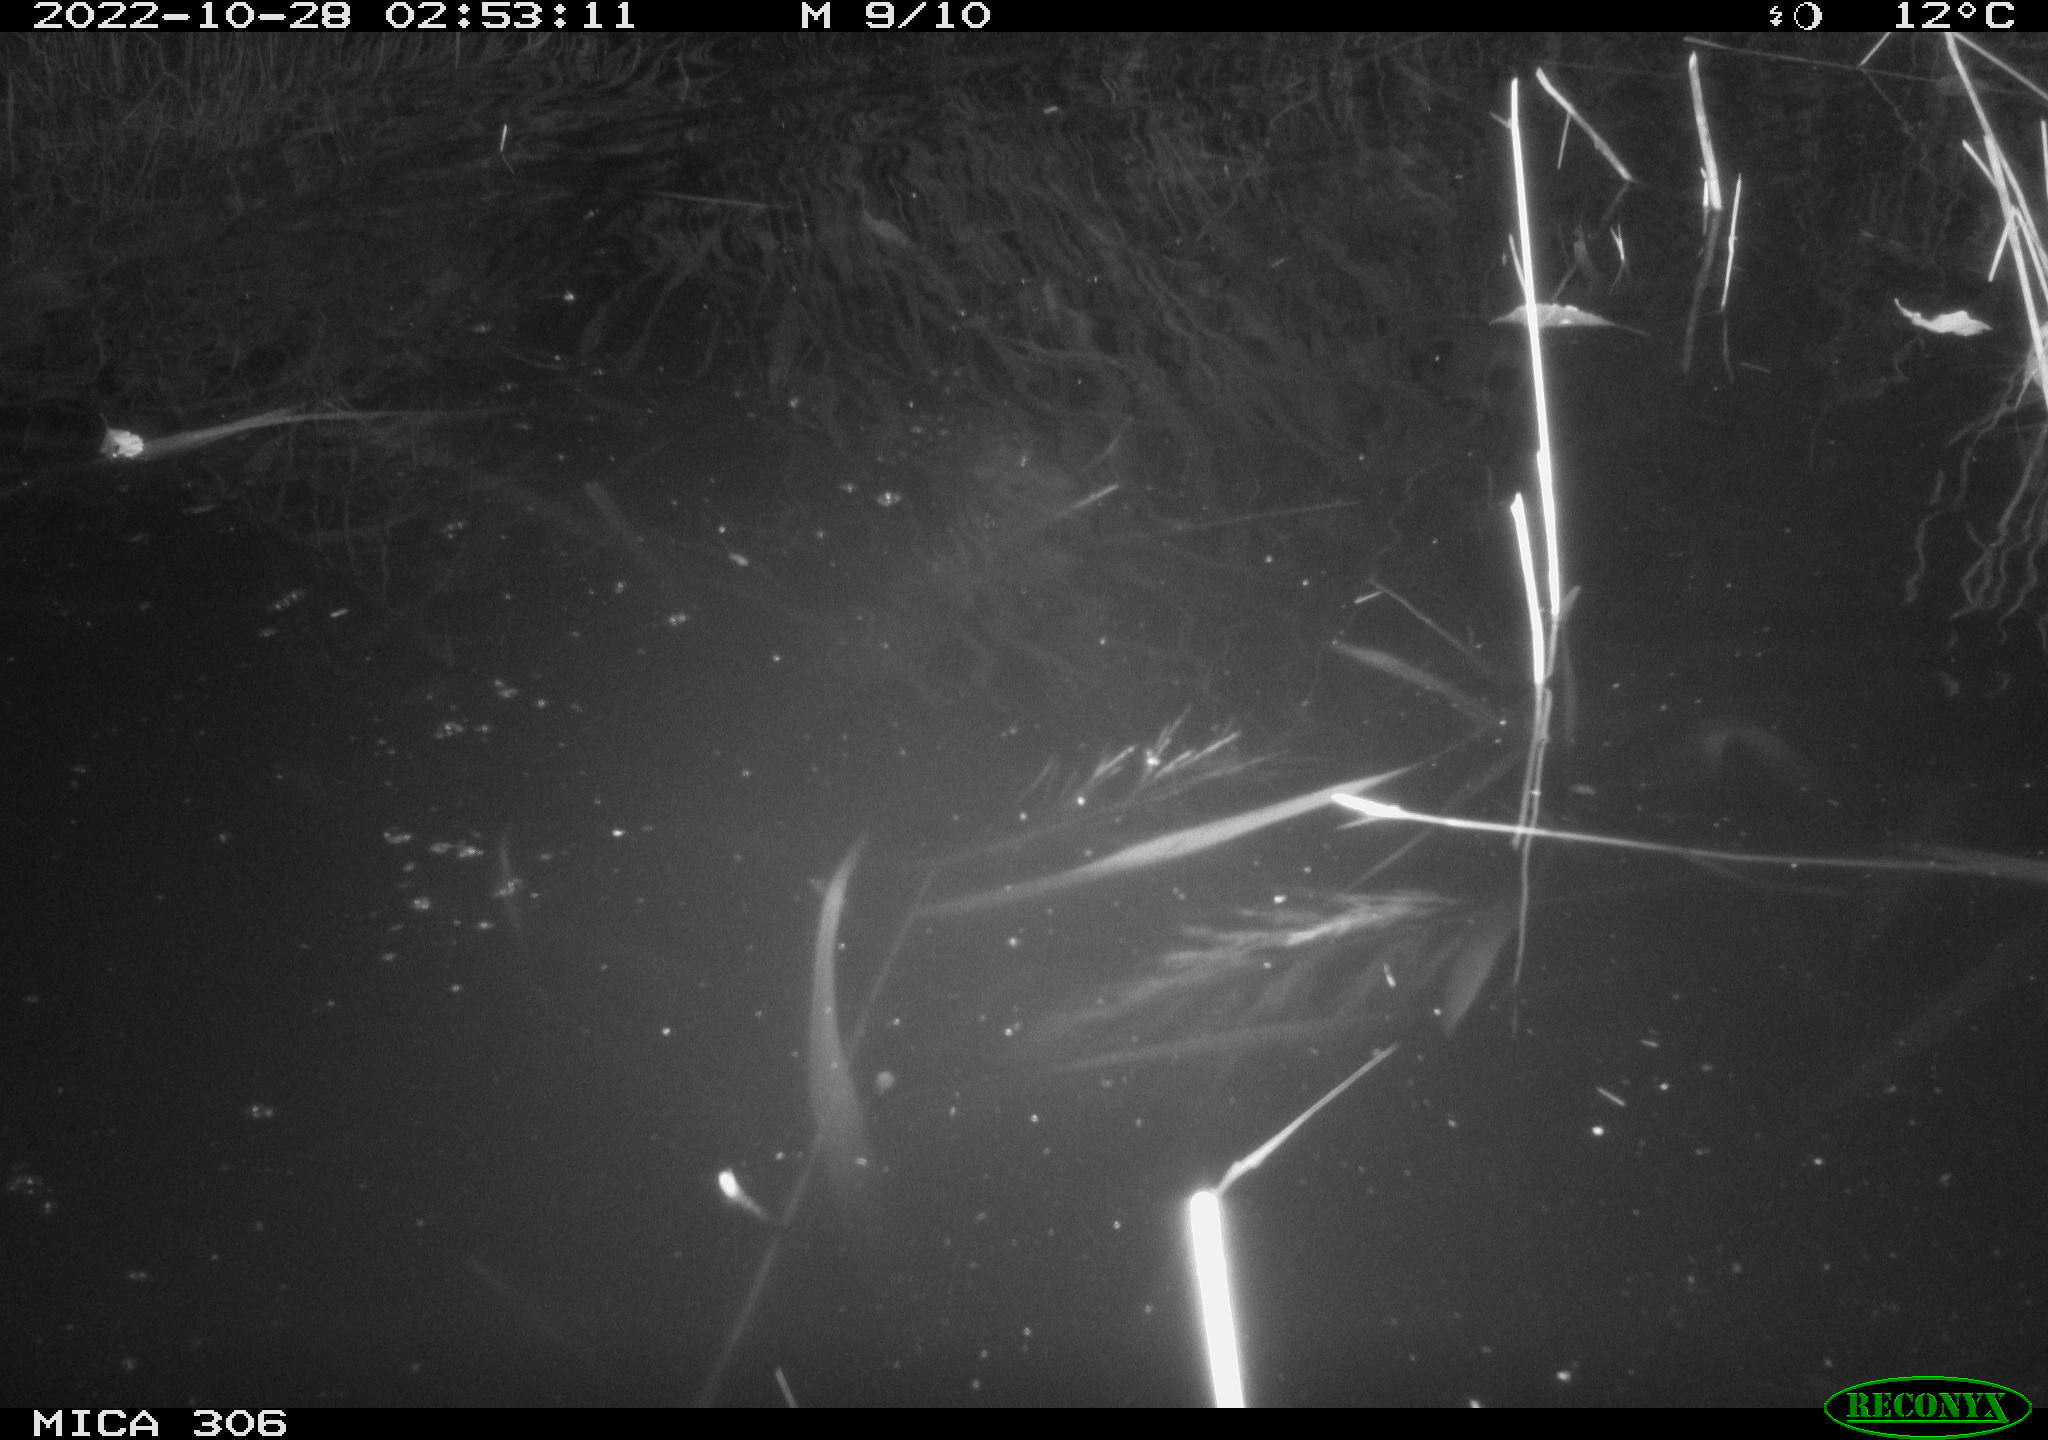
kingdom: Animalia
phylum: Chordata
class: Mammalia
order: Rodentia
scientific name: Rodentia
